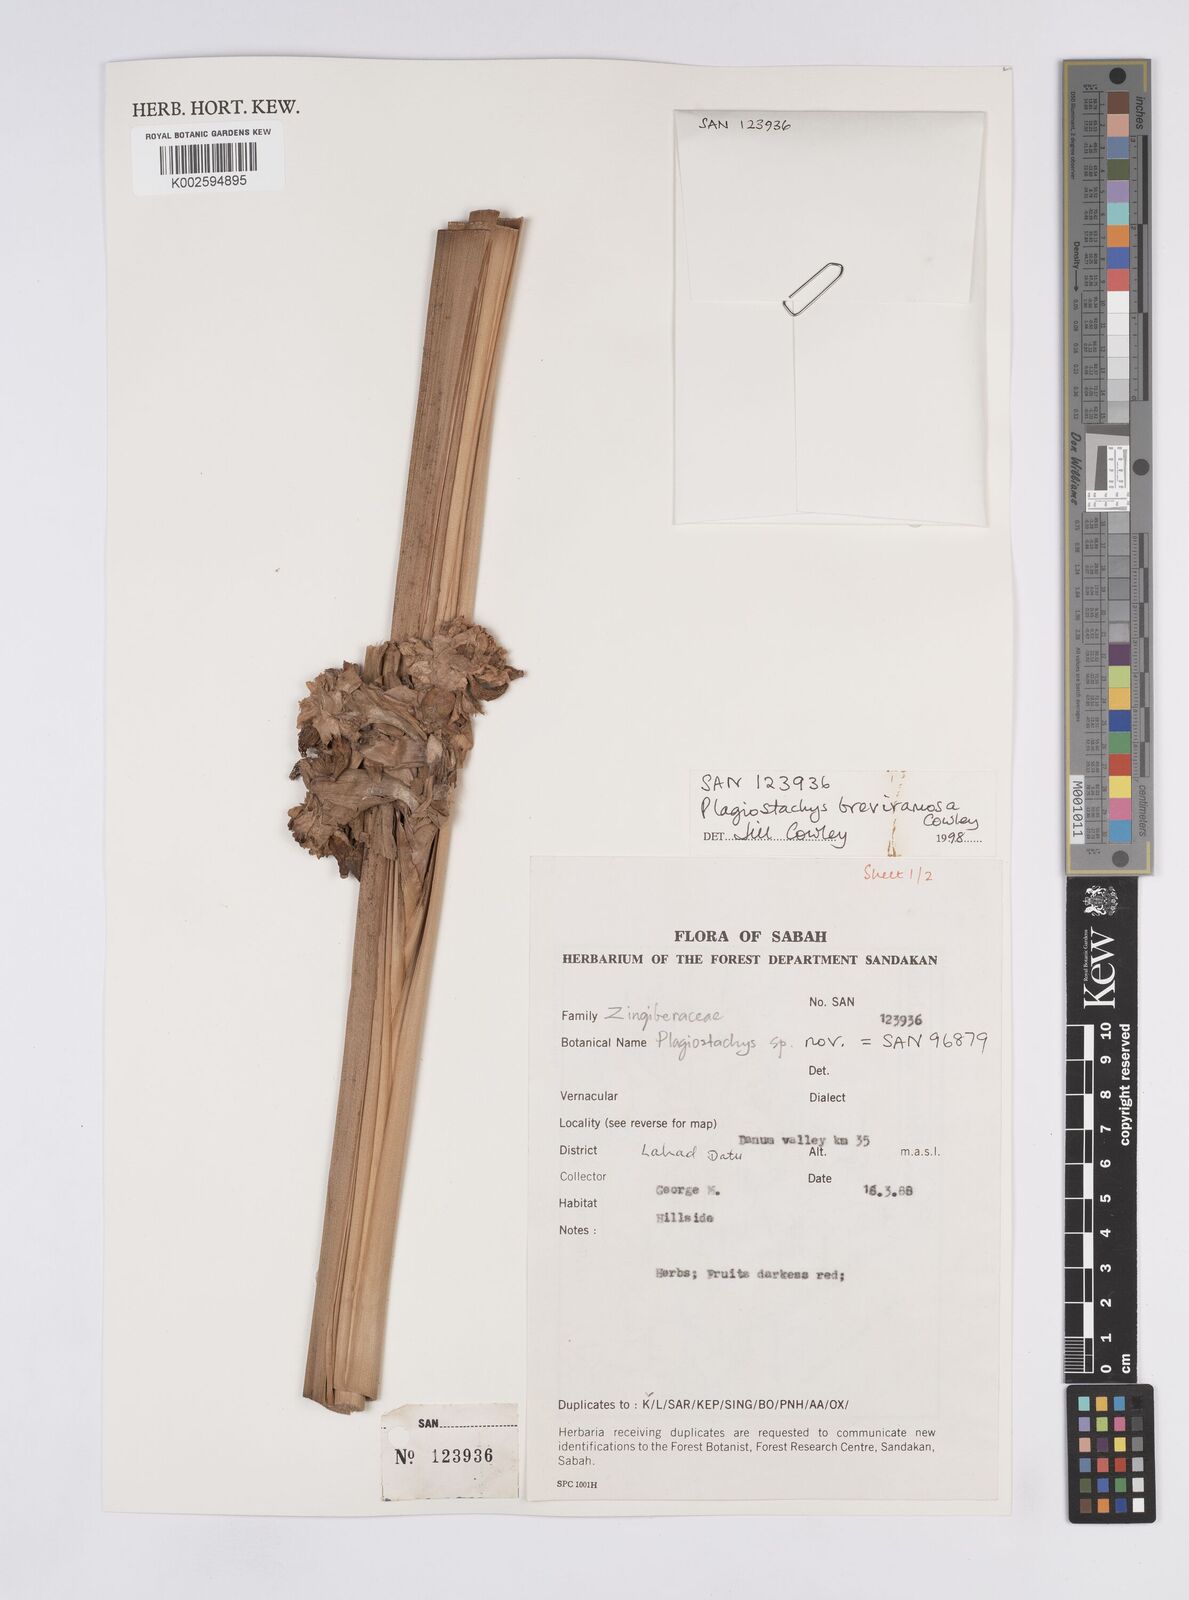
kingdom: Plantae
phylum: Tracheophyta
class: Liliopsida
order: Zingiberales
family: Zingiberaceae
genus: Plagiostachys
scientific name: Plagiostachys breviramosa
